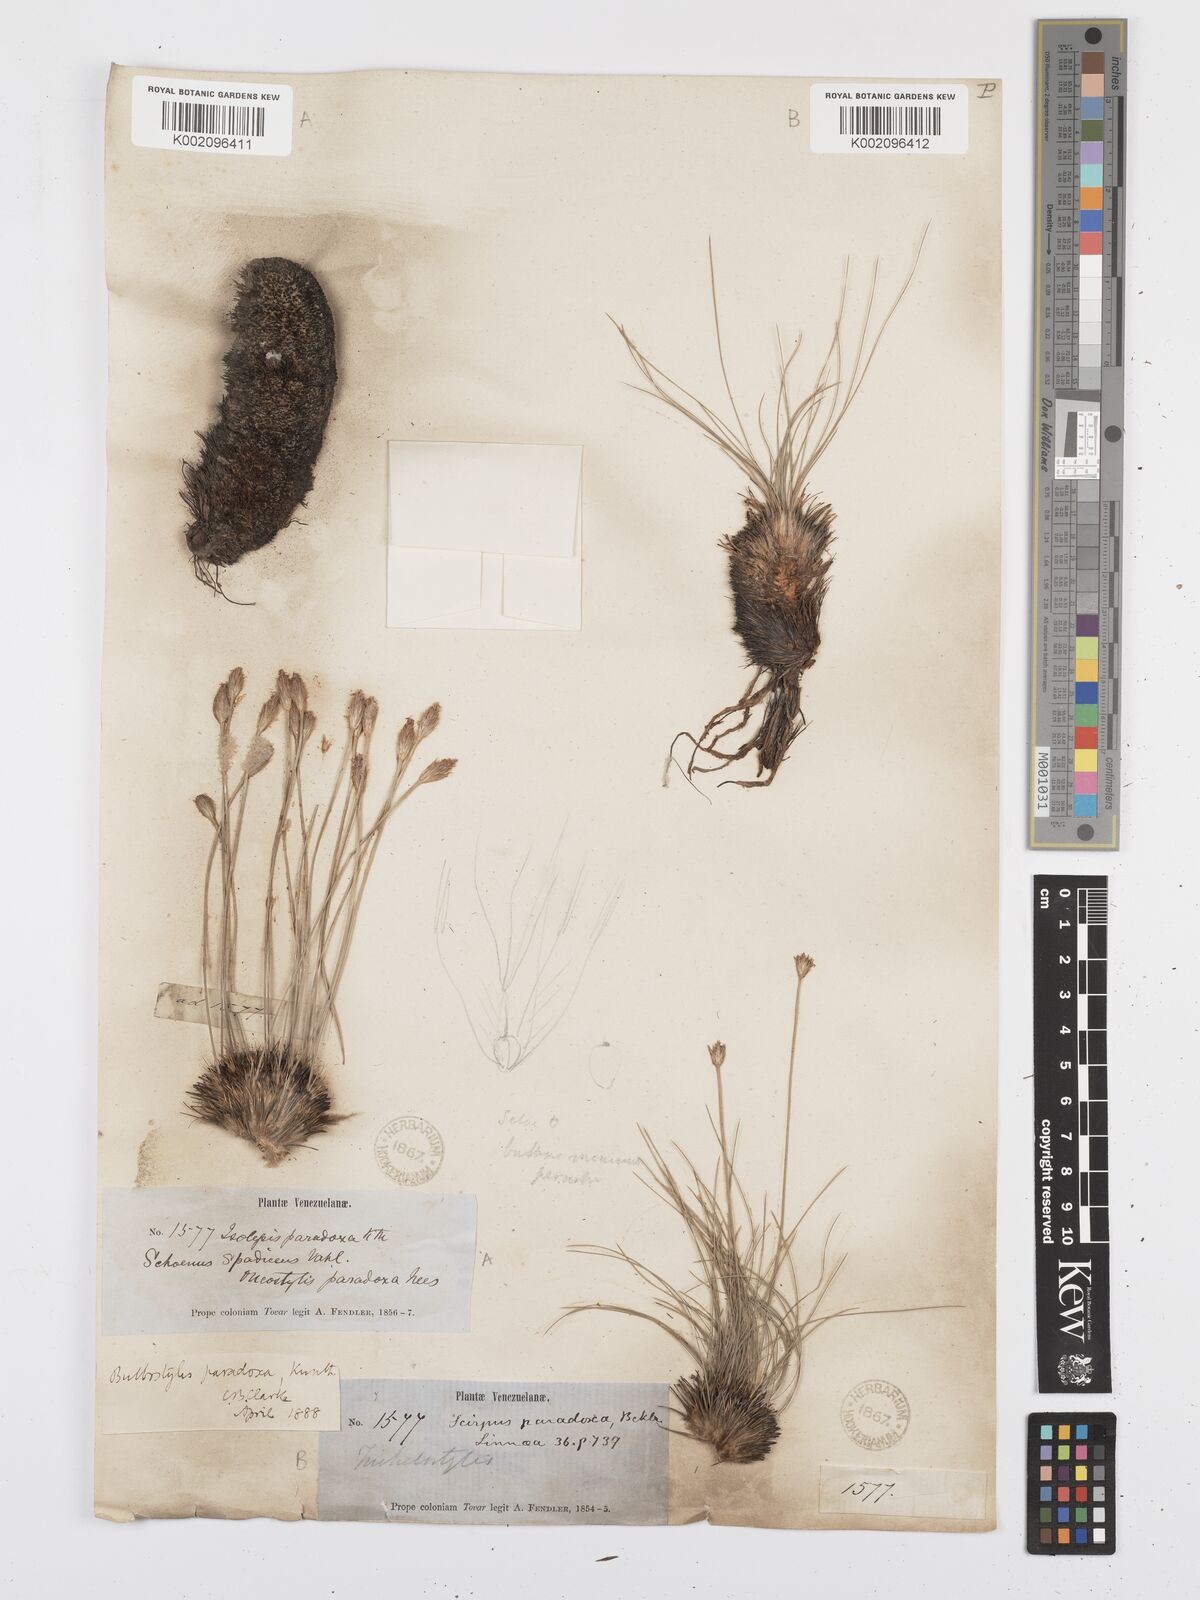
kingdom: Plantae
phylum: Tracheophyta
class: Liliopsida
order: Poales
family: Cyperaceae
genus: Bulbostylis
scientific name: Bulbostylis
